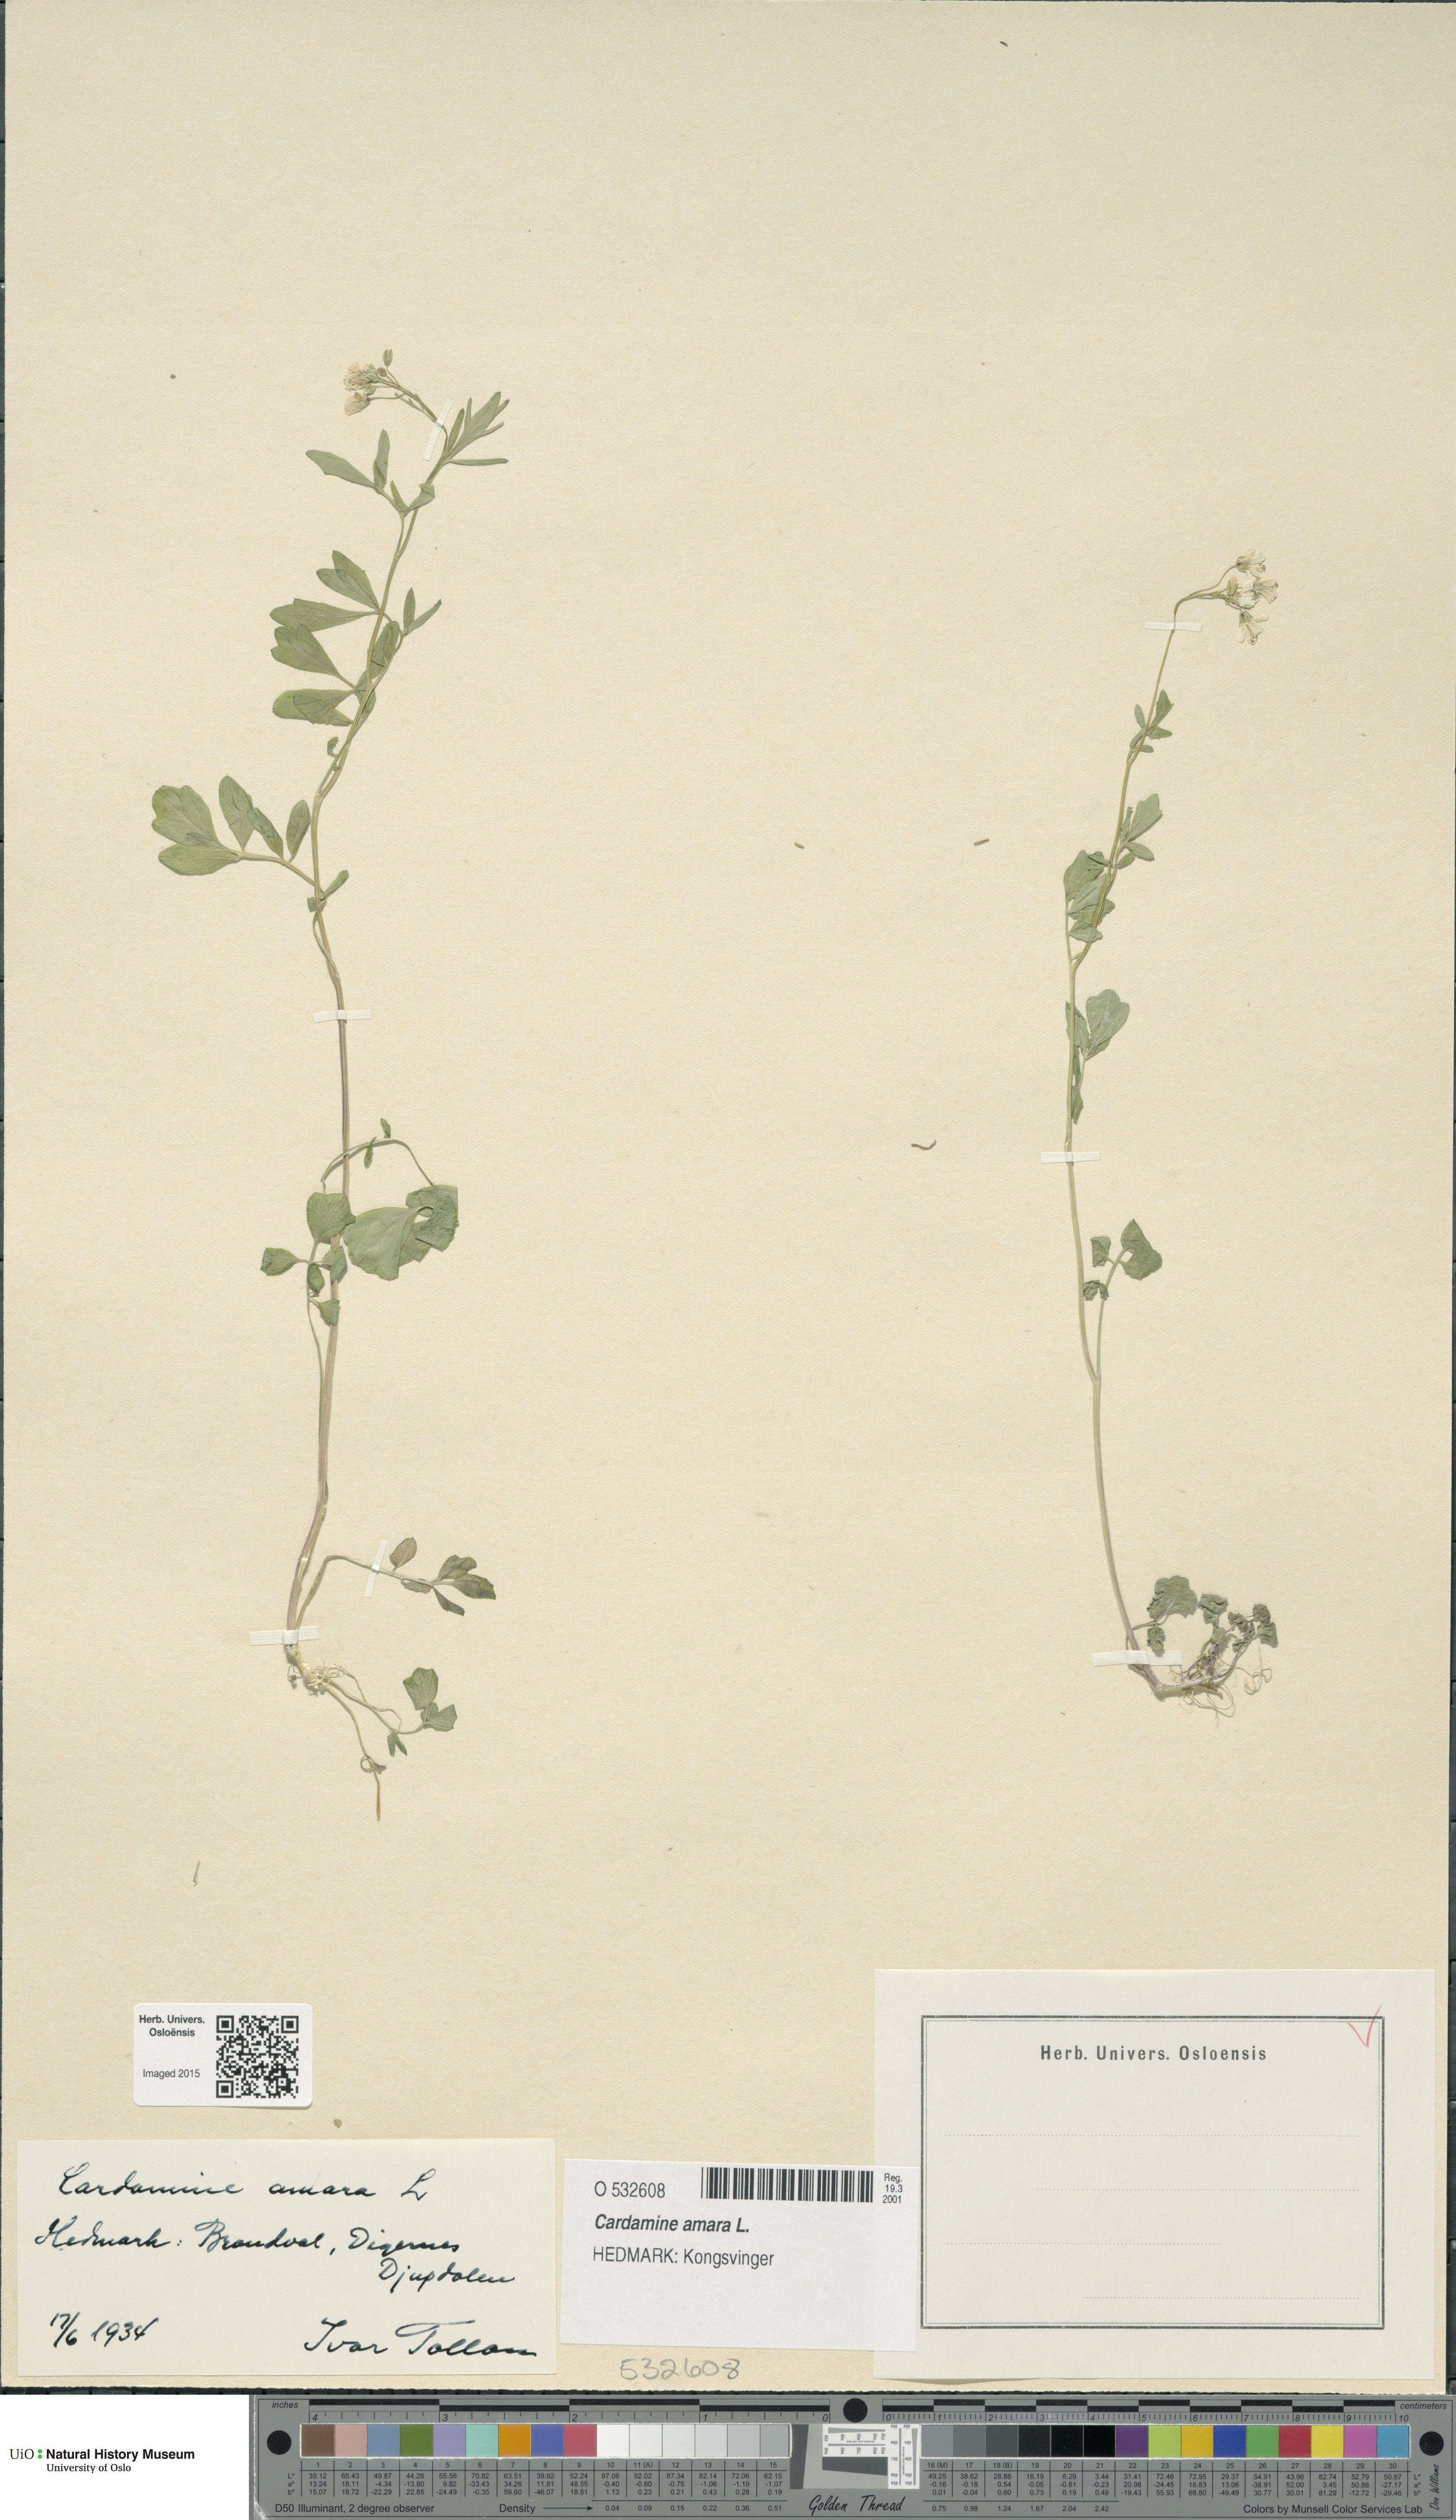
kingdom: Plantae
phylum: Tracheophyta
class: Magnoliopsida
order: Brassicales
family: Brassicaceae
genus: Cardamine
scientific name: Cardamine amara
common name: Large bitter-cress
